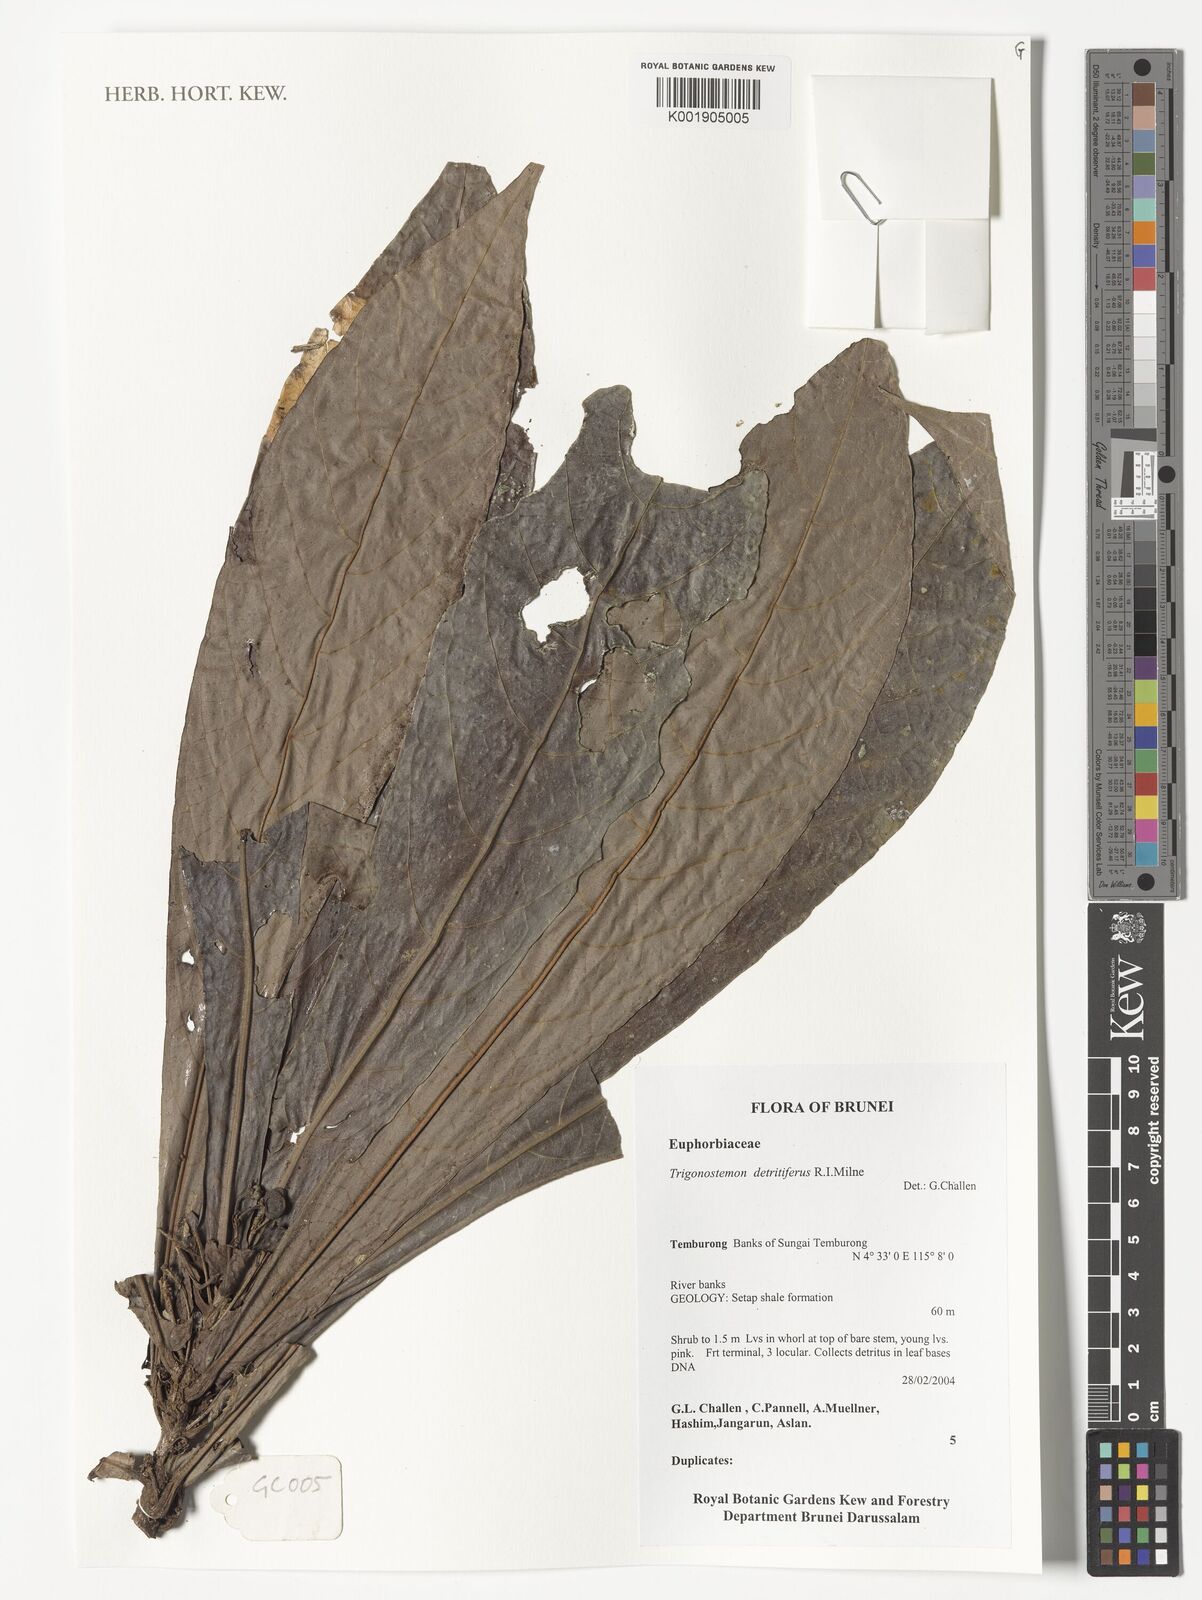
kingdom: Plantae
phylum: Tracheophyta
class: Magnoliopsida
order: Malpighiales
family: Euphorbiaceae
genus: Trigonostemon
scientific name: Trigonostemon detritifer
